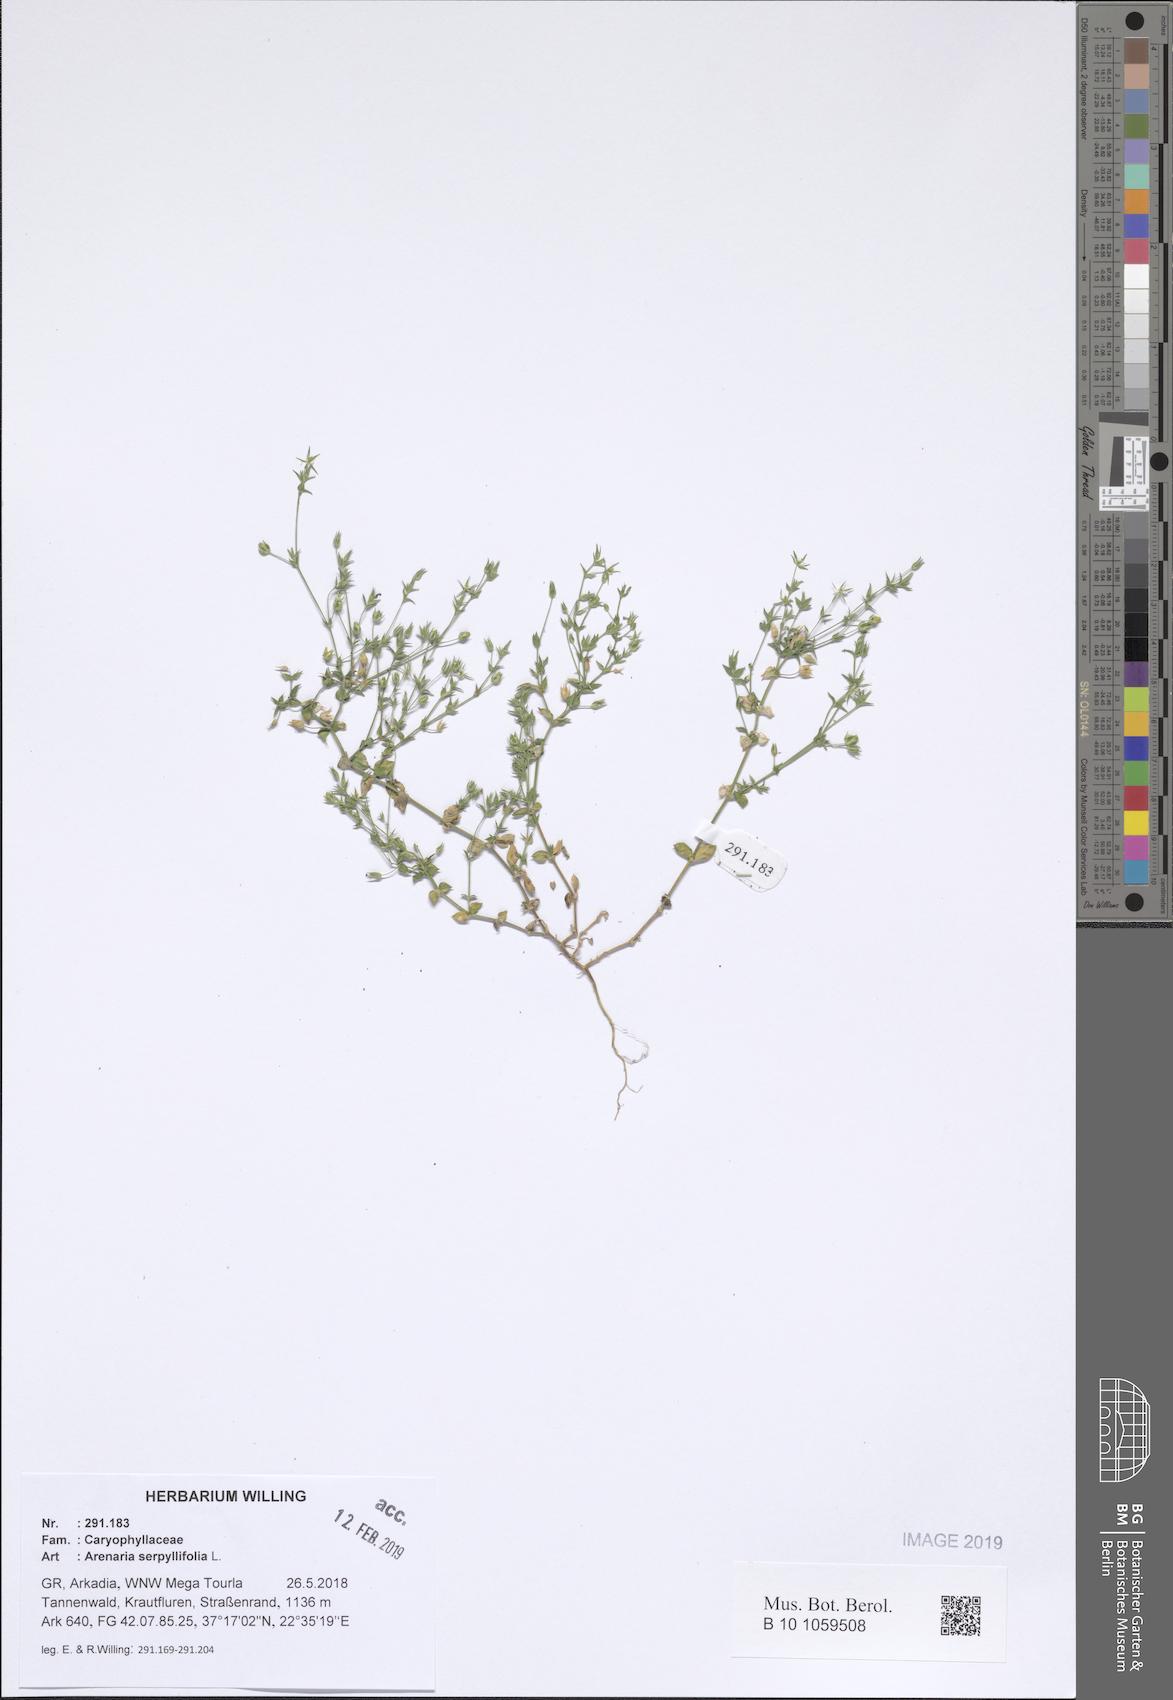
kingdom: Plantae
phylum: Tracheophyta
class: Magnoliopsida
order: Caryophyllales
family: Caryophyllaceae
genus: Arenaria
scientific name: Arenaria serpyllifolia
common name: Thyme-leaved sandwort
